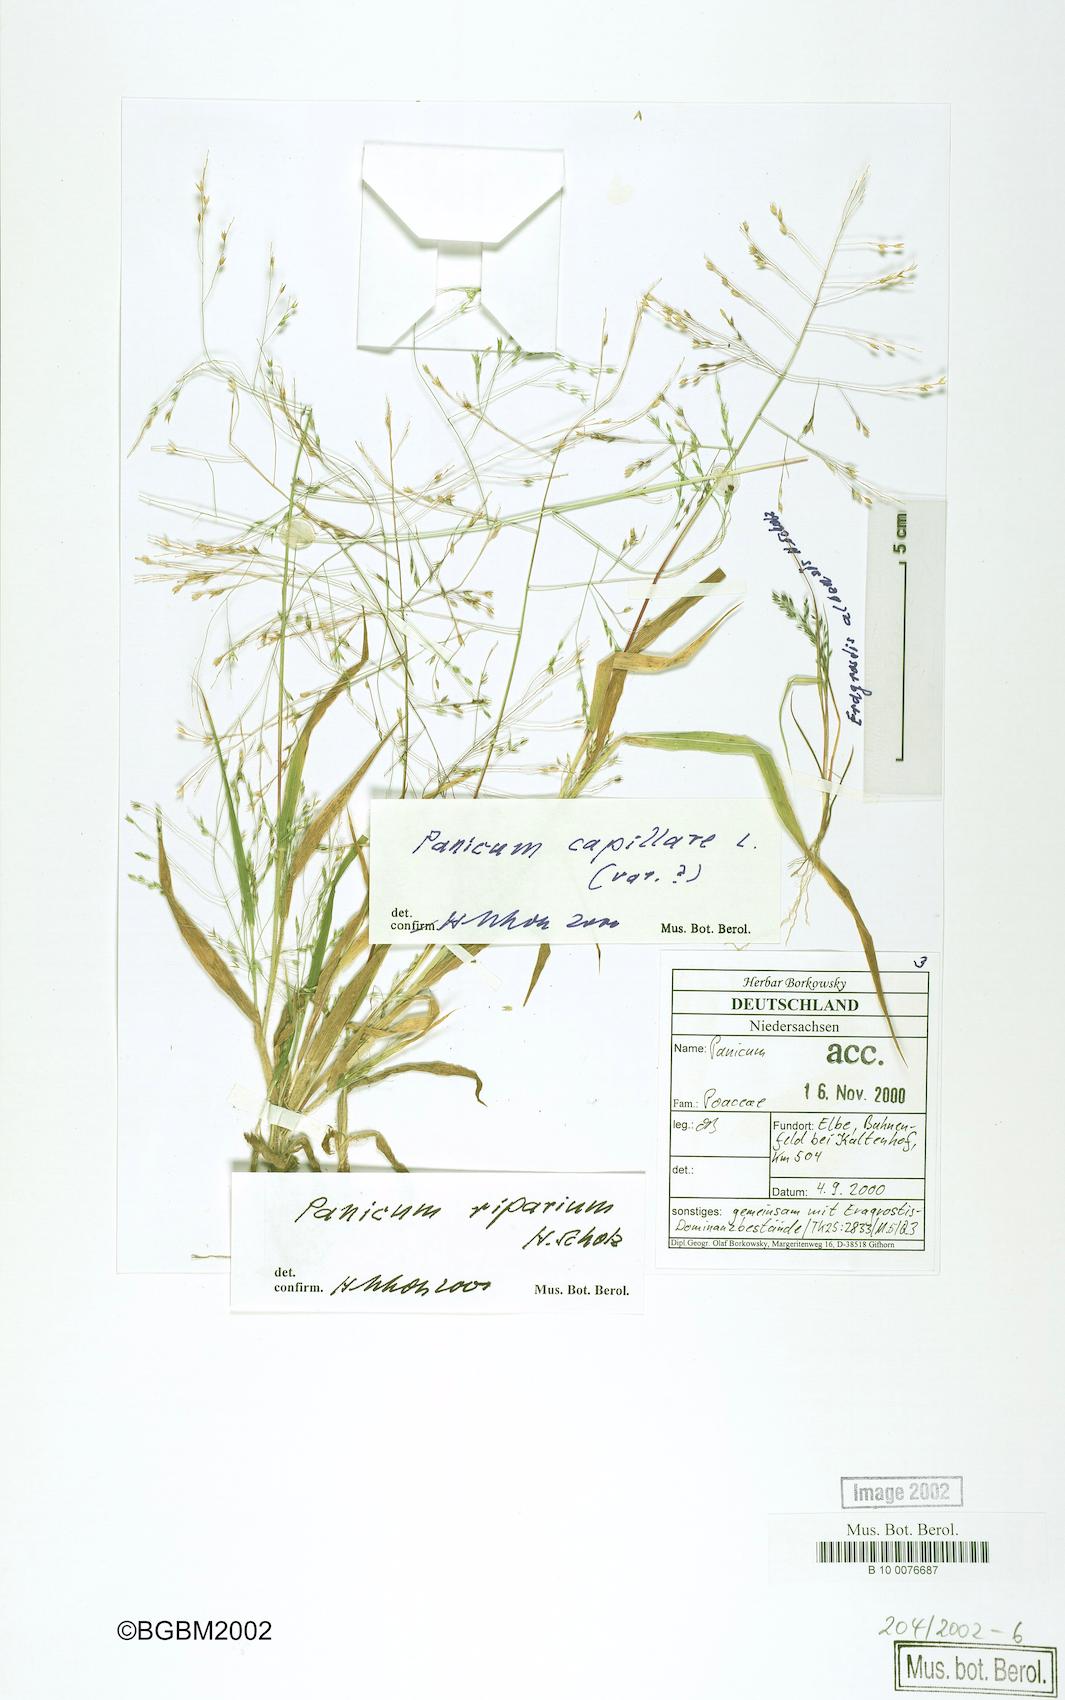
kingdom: Plantae
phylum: Tracheophyta
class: Liliopsida
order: Poales
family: Poaceae
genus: Panicum
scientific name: Panicum capillare
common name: Witch-grass
